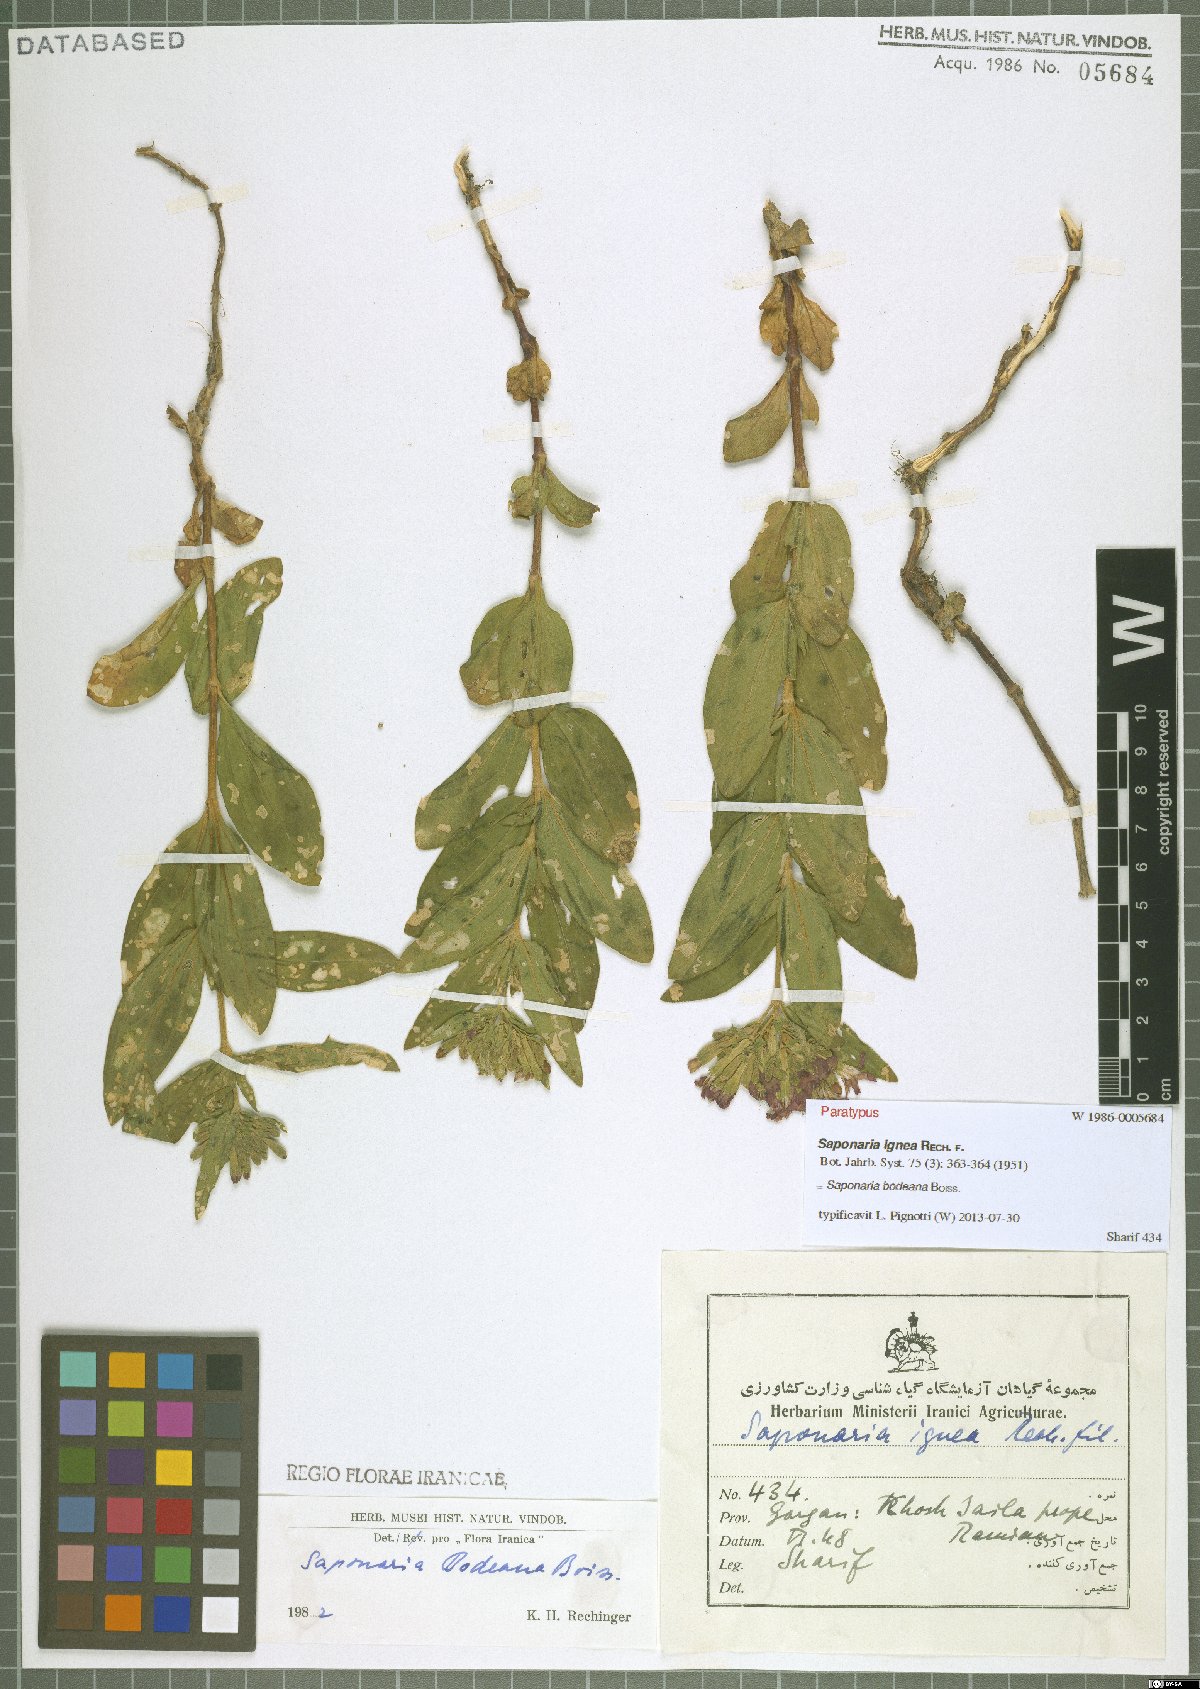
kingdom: Plantae
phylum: Tracheophyta
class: Magnoliopsida
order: Caryophyllales
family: Caryophyllaceae
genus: Saponaria
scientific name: Saponaria bodeana
